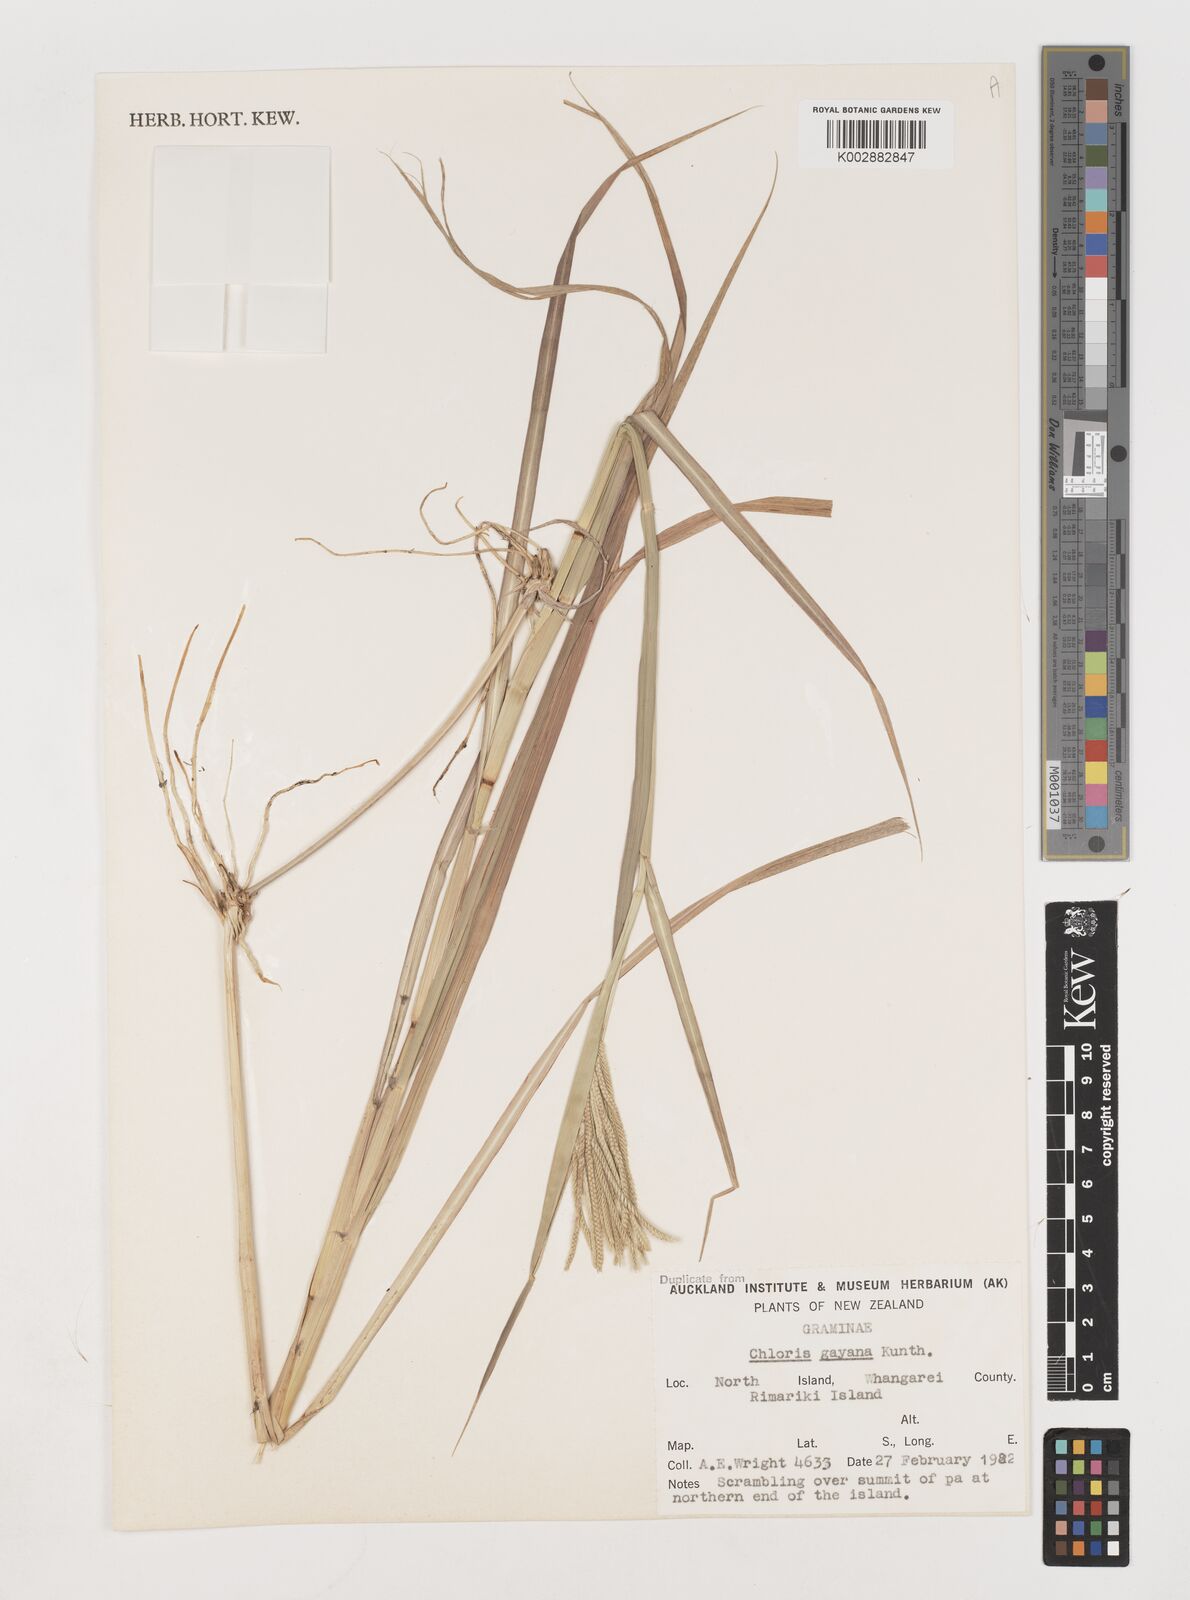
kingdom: Plantae
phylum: Tracheophyta
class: Liliopsida
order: Poales
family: Poaceae
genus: Chloris
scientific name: Chloris gayana
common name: Rhodes grass
